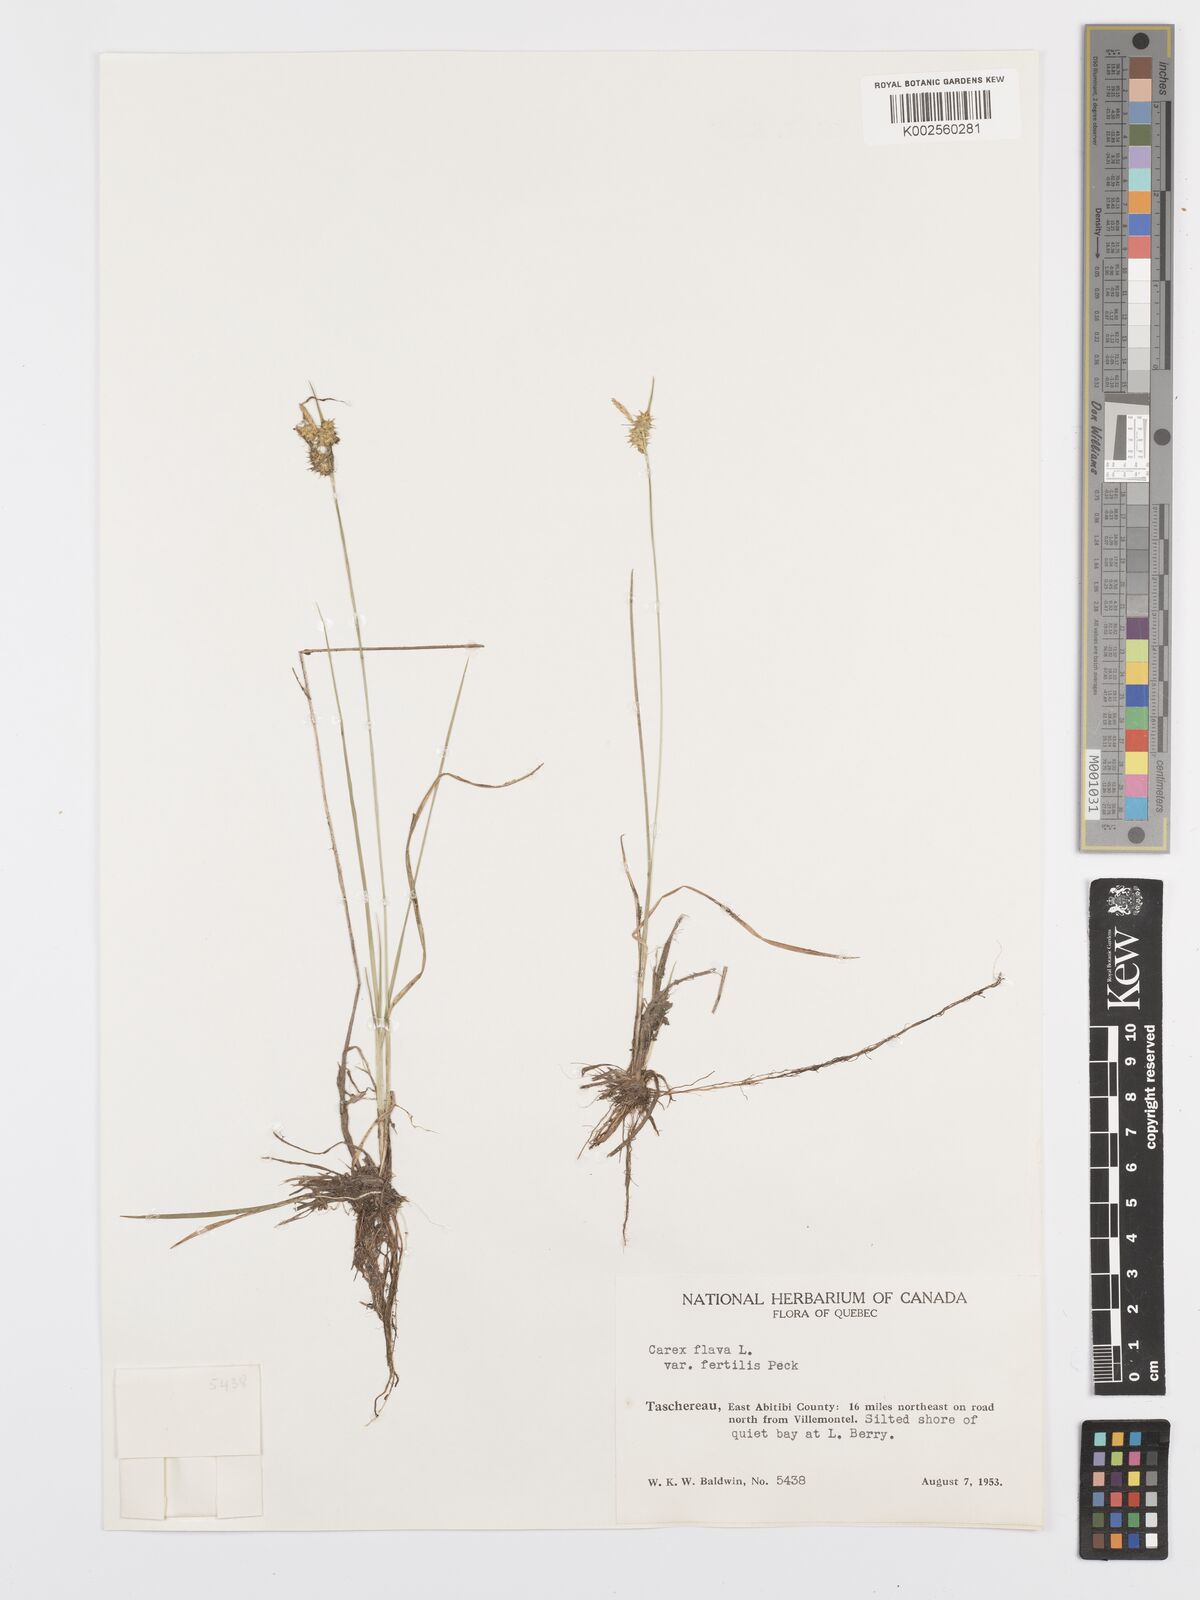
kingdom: Plantae
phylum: Tracheophyta
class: Liliopsida
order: Poales
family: Cyperaceae
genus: Carex
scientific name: Carex flava
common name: Large yellow-sedge
